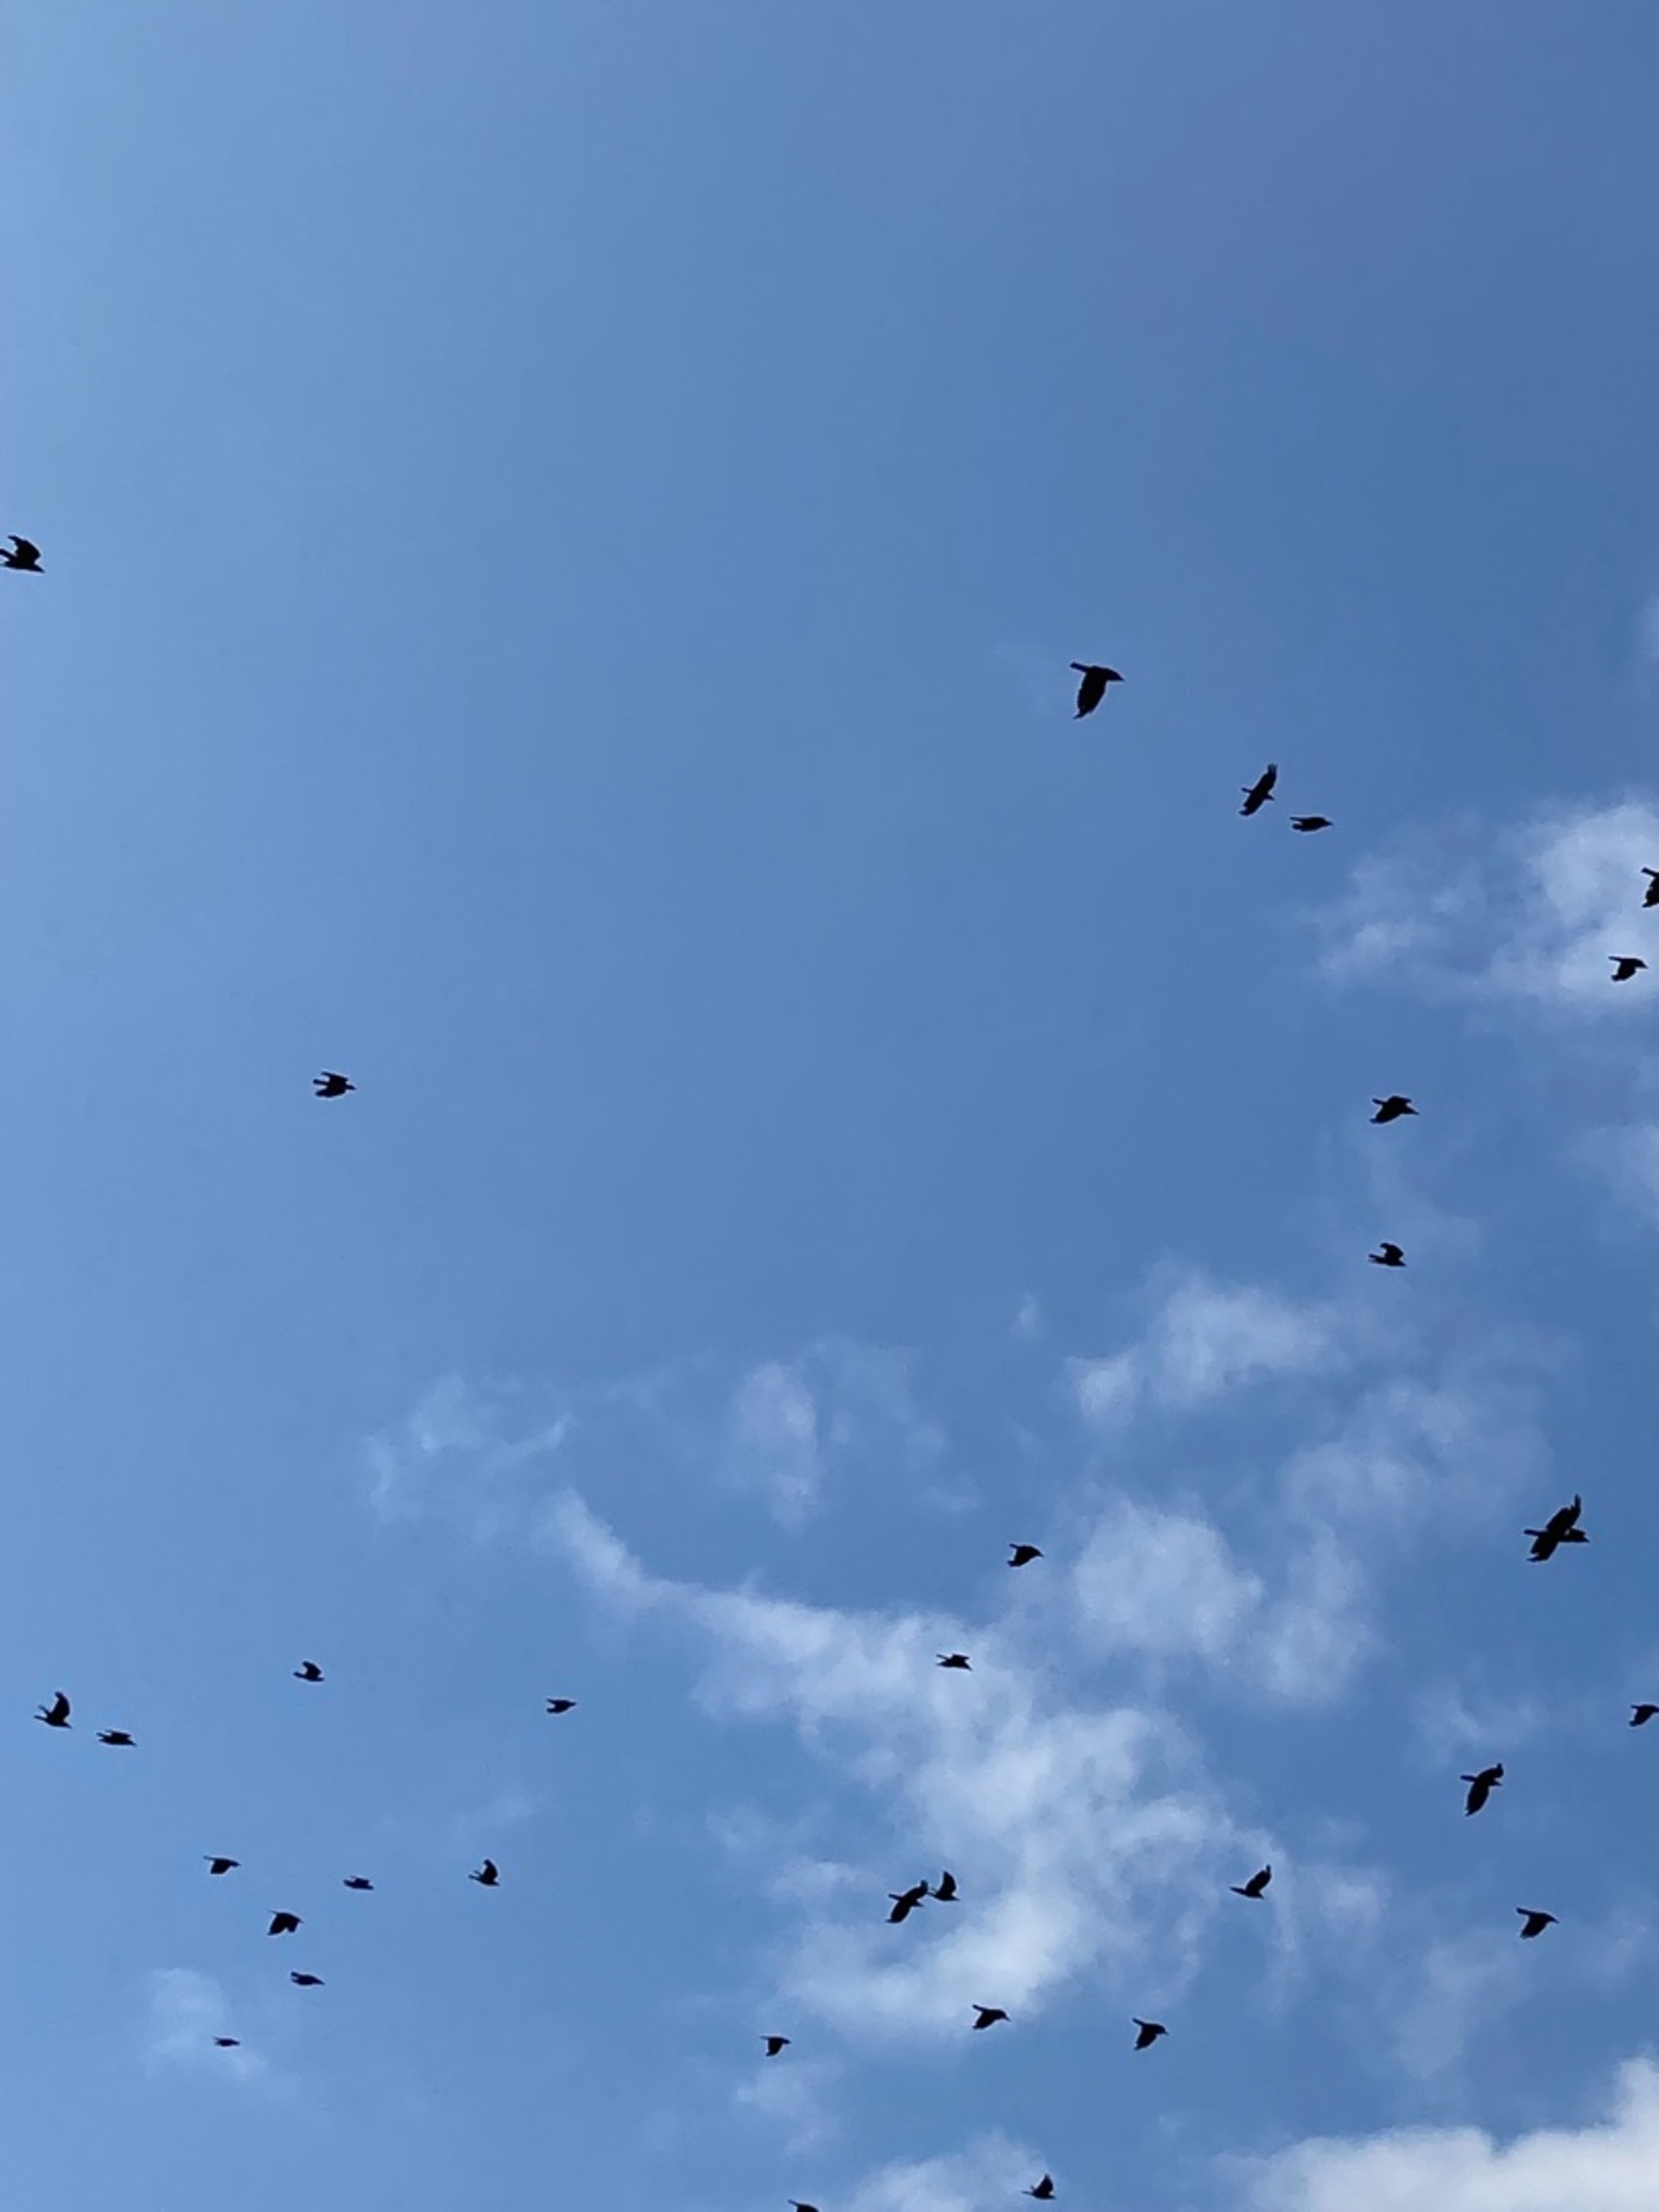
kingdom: Animalia
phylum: Chordata
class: Aves
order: Passeriformes
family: Corvidae
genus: Corvus
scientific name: Corvus frugilegus
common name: Råge
